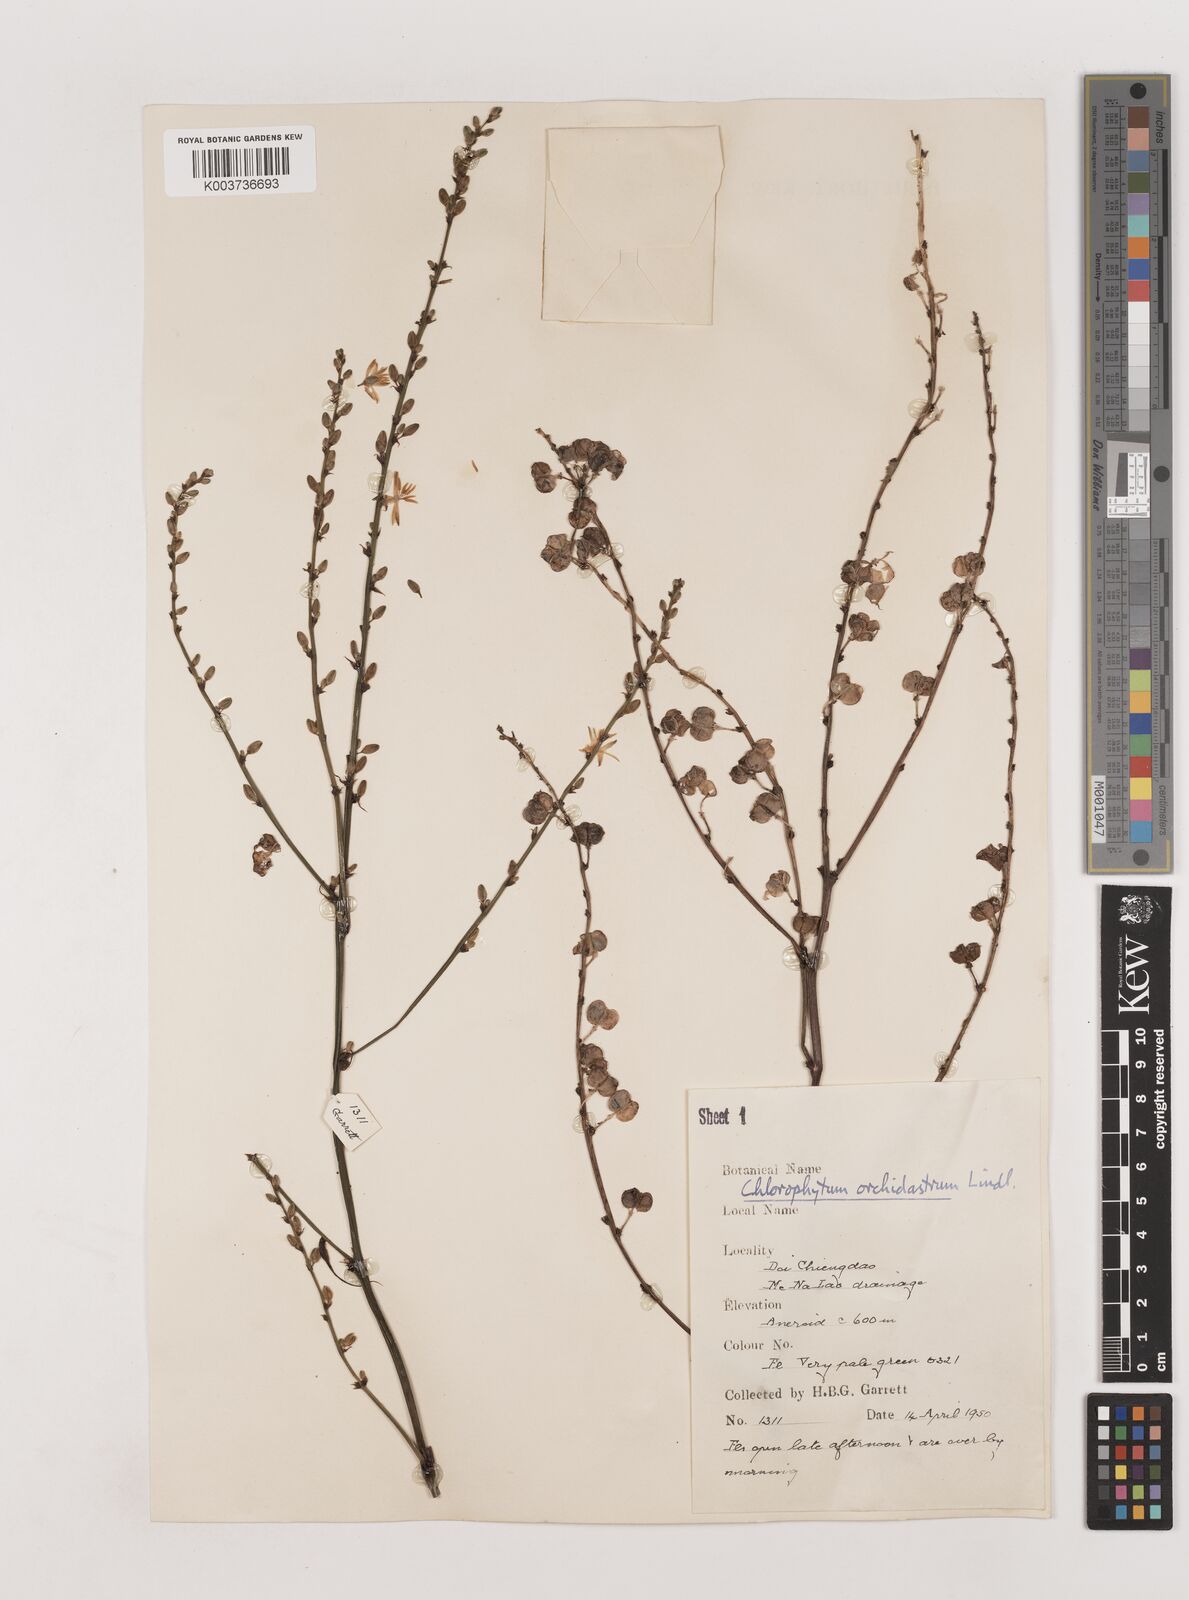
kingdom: Plantae
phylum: Tracheophyta
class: Liliopsida
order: Asparagales
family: Asparagaceae
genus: Chlorophytum
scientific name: Chlorophytum
